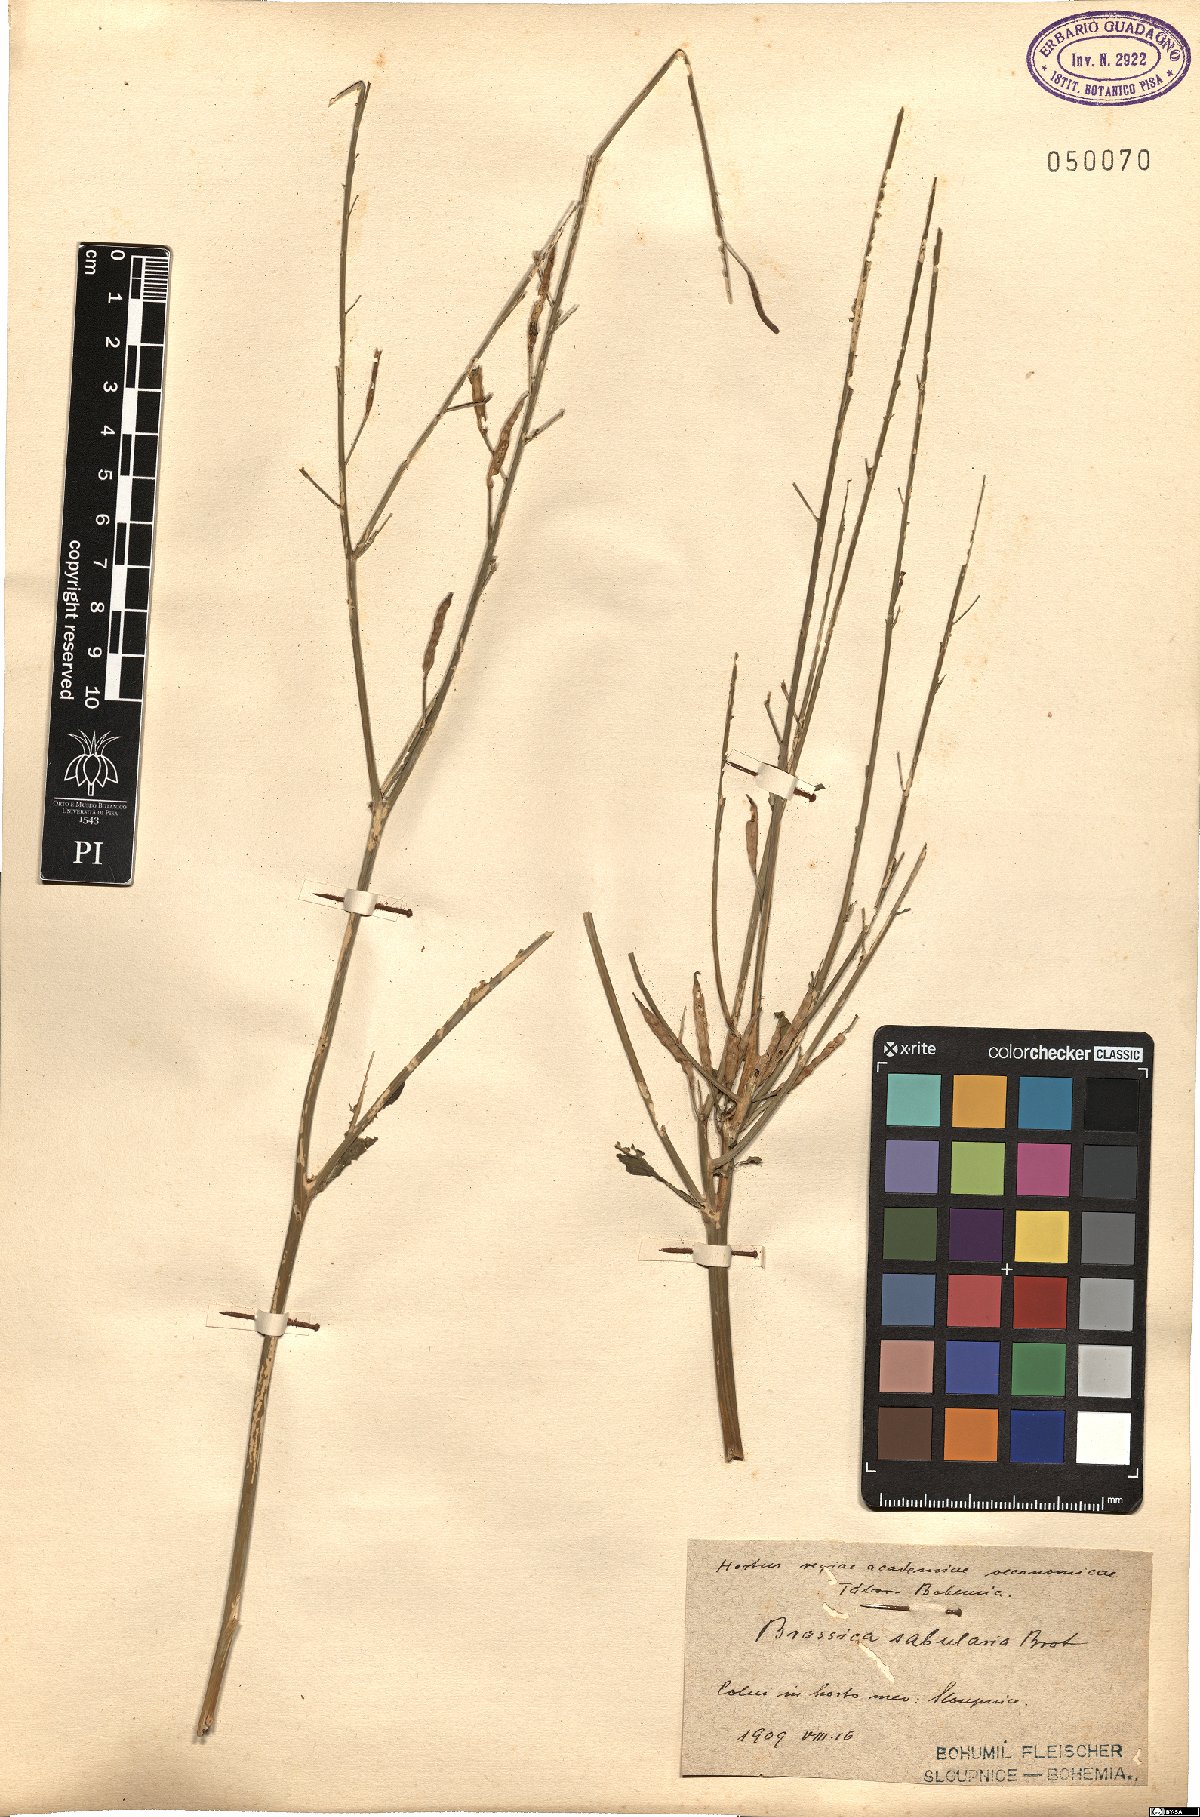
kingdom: Plantae
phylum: Tracheophyta
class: Magnoliopsida
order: Brassicales
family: Brassicaceae
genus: Brassica
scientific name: Brassica barrelieri
